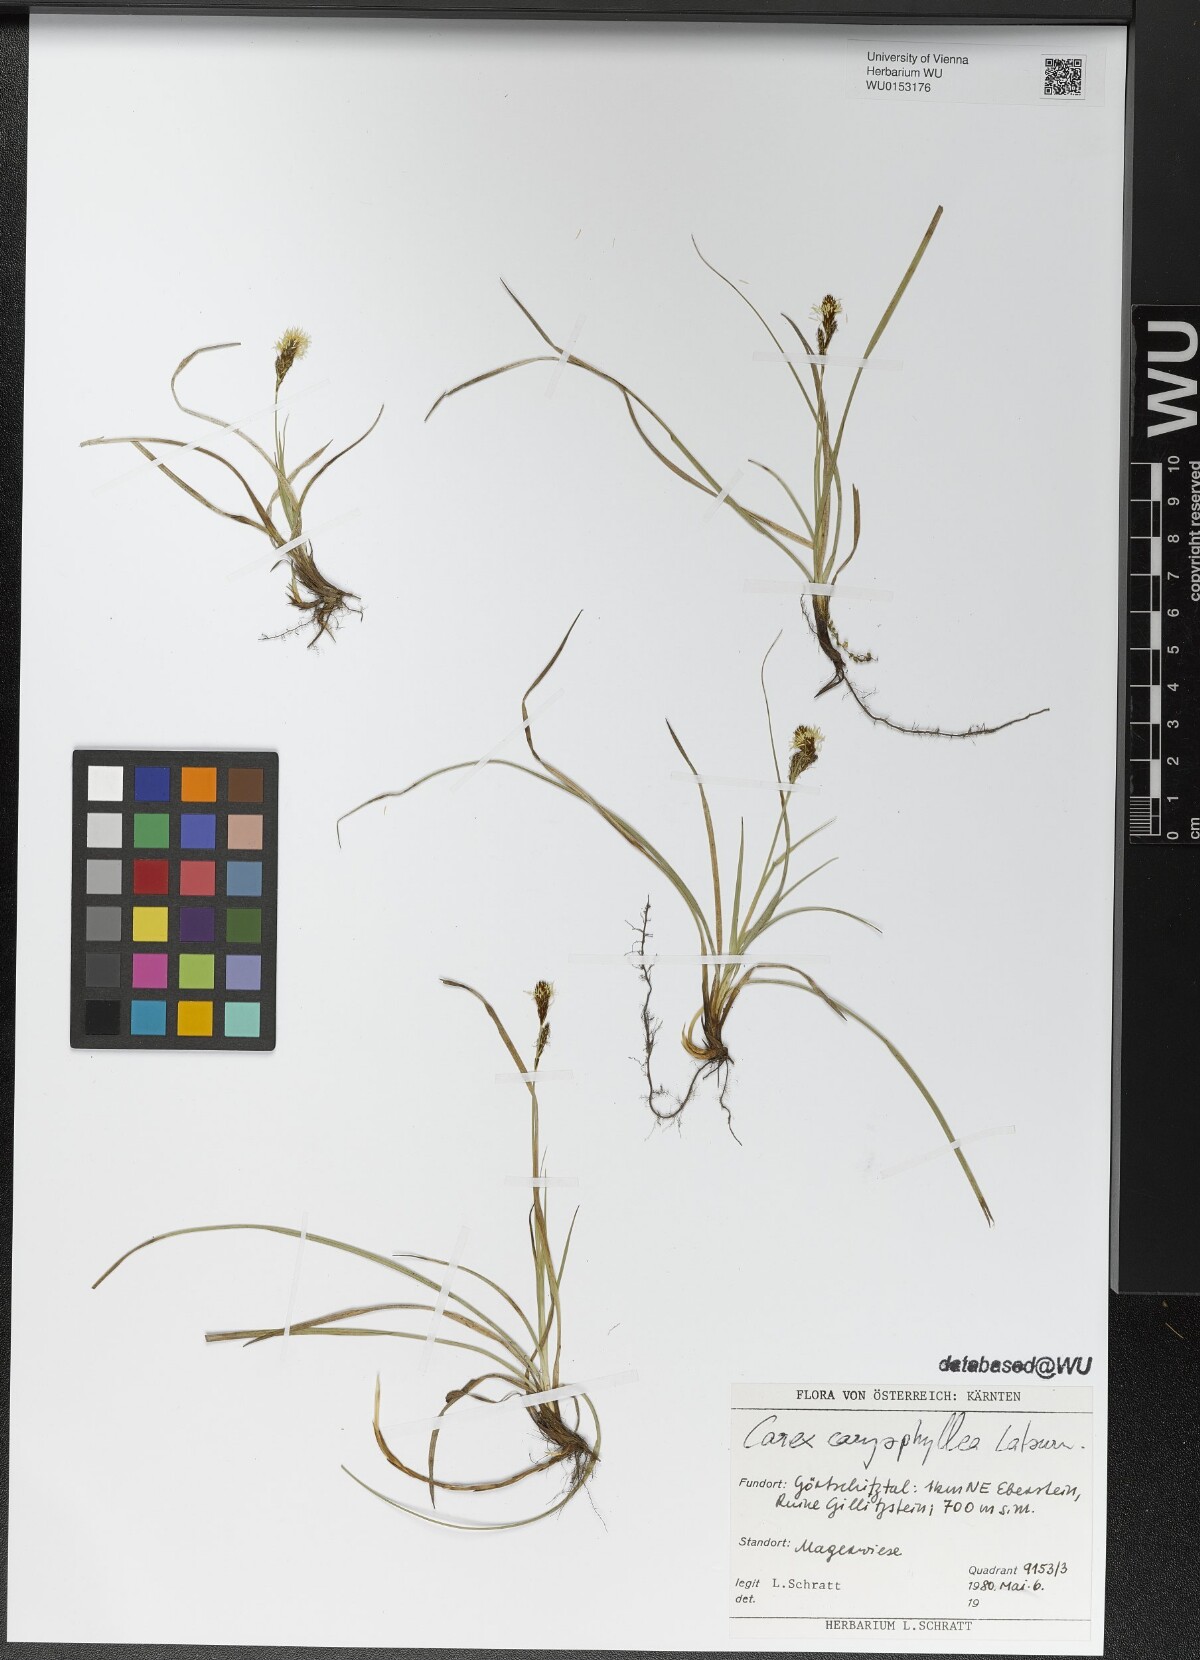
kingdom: Plantae
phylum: Tracheophyta
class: Liliopsida
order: Poales
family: Cyperaceae
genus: Carex
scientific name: Carex caryophyllea
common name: Spring sedge
